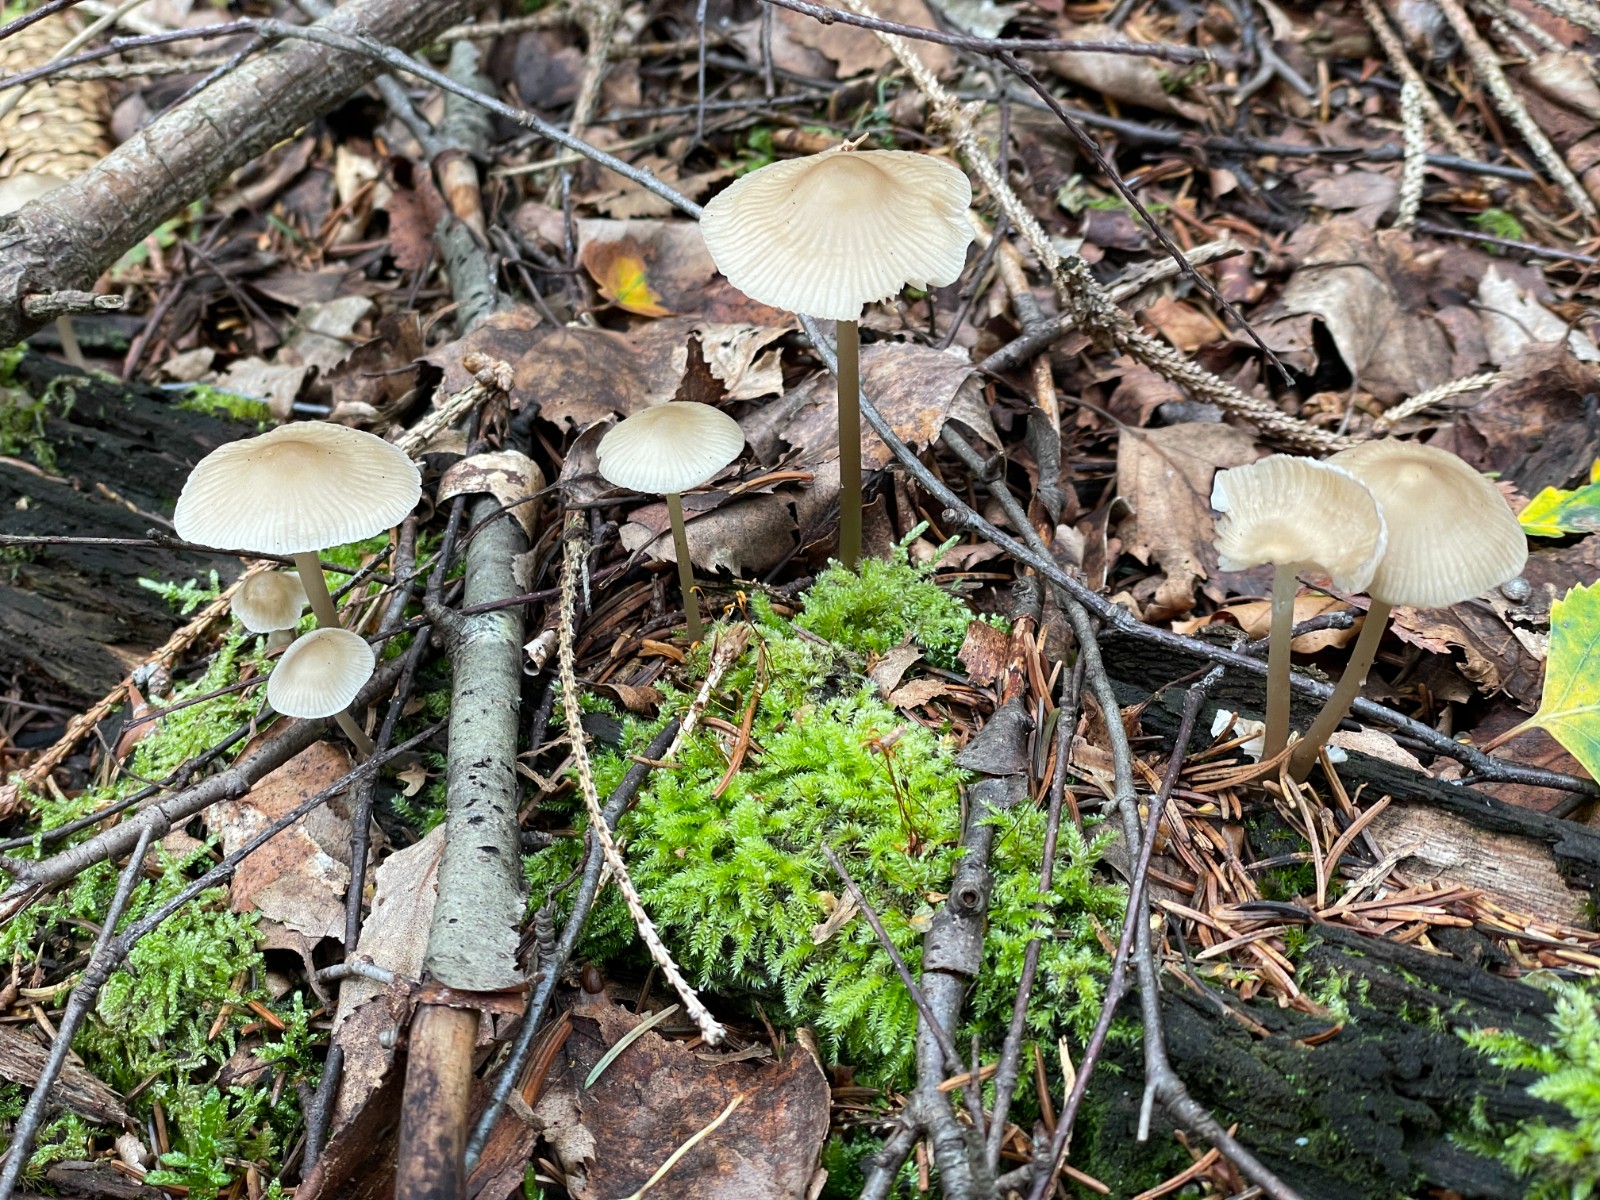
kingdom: Fungi
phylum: Basidiomycota
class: Agaricomycetes
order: Agaricales
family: Mycenaceae
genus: Mycena
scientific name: Mycena galericulata
